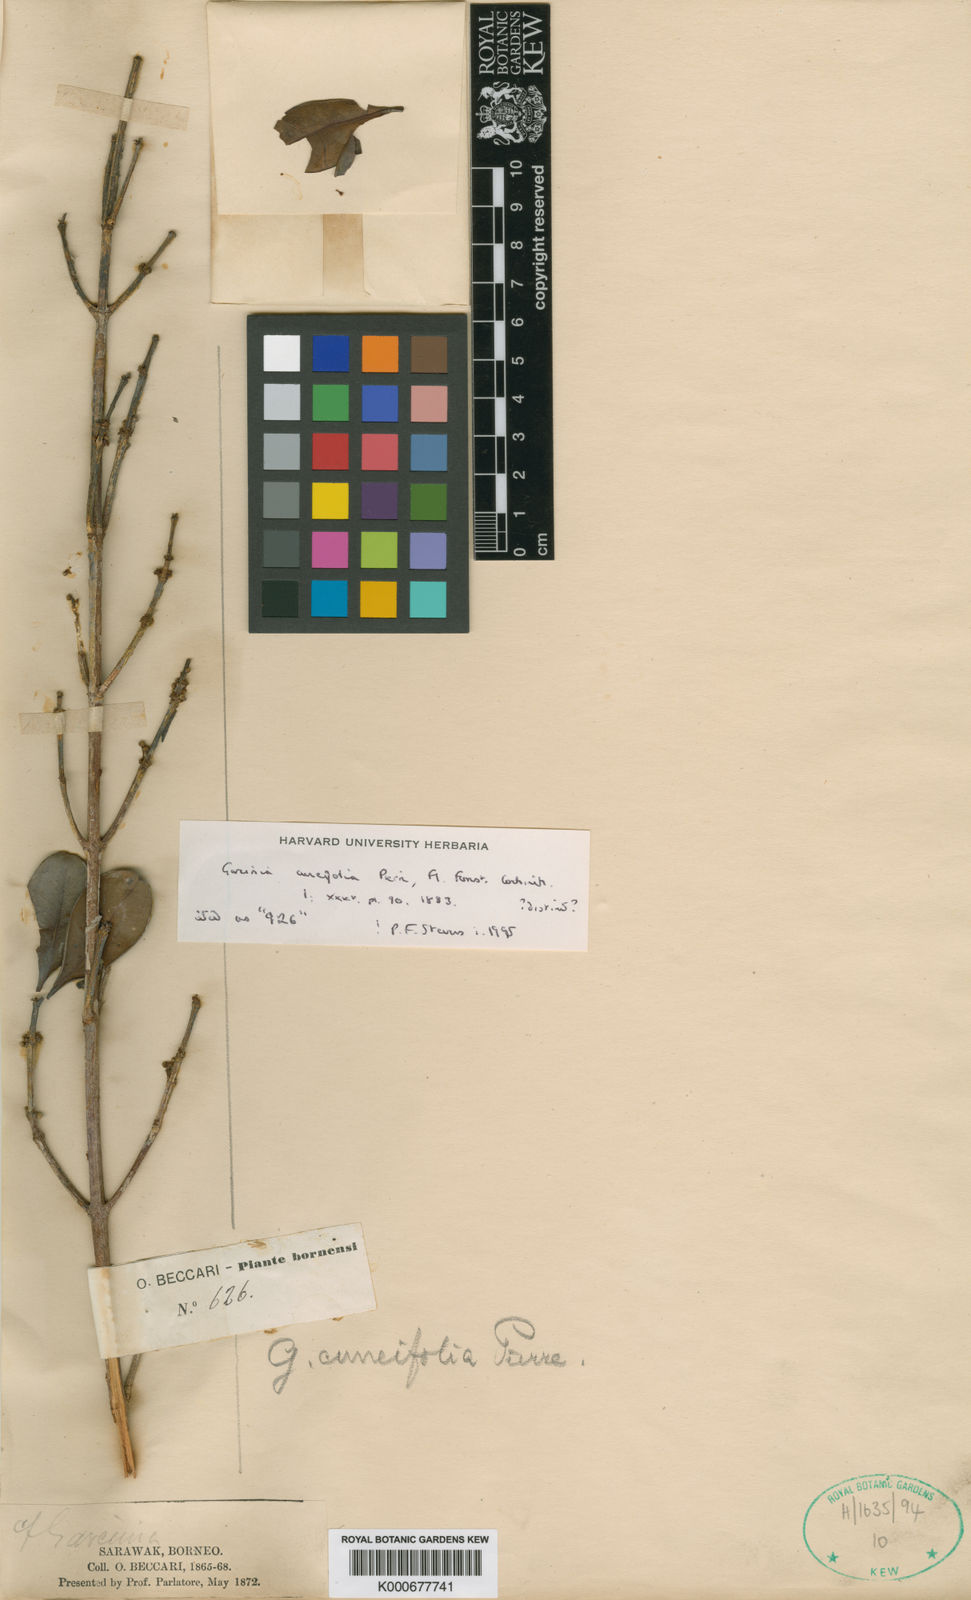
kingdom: Plantae
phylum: Tracheophyta
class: Magnoliopsida
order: Malpighiales
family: Clusiaceae
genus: Garcinia
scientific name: Garcinia cuneifolia
